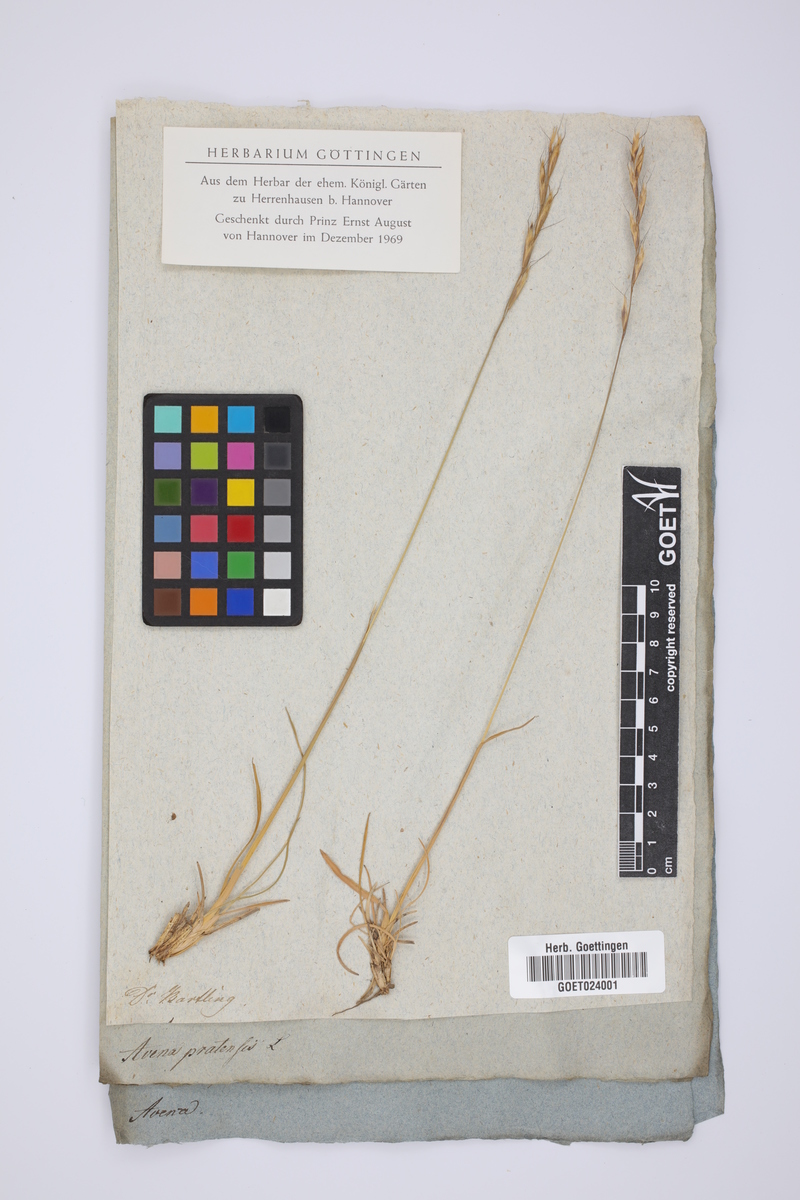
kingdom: Plantae
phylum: Tracheophyta
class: Liliopsida
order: Poales
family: Poaceae
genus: Helictochloa
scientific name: Helictochloa pratensis
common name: Meadow oat grass
